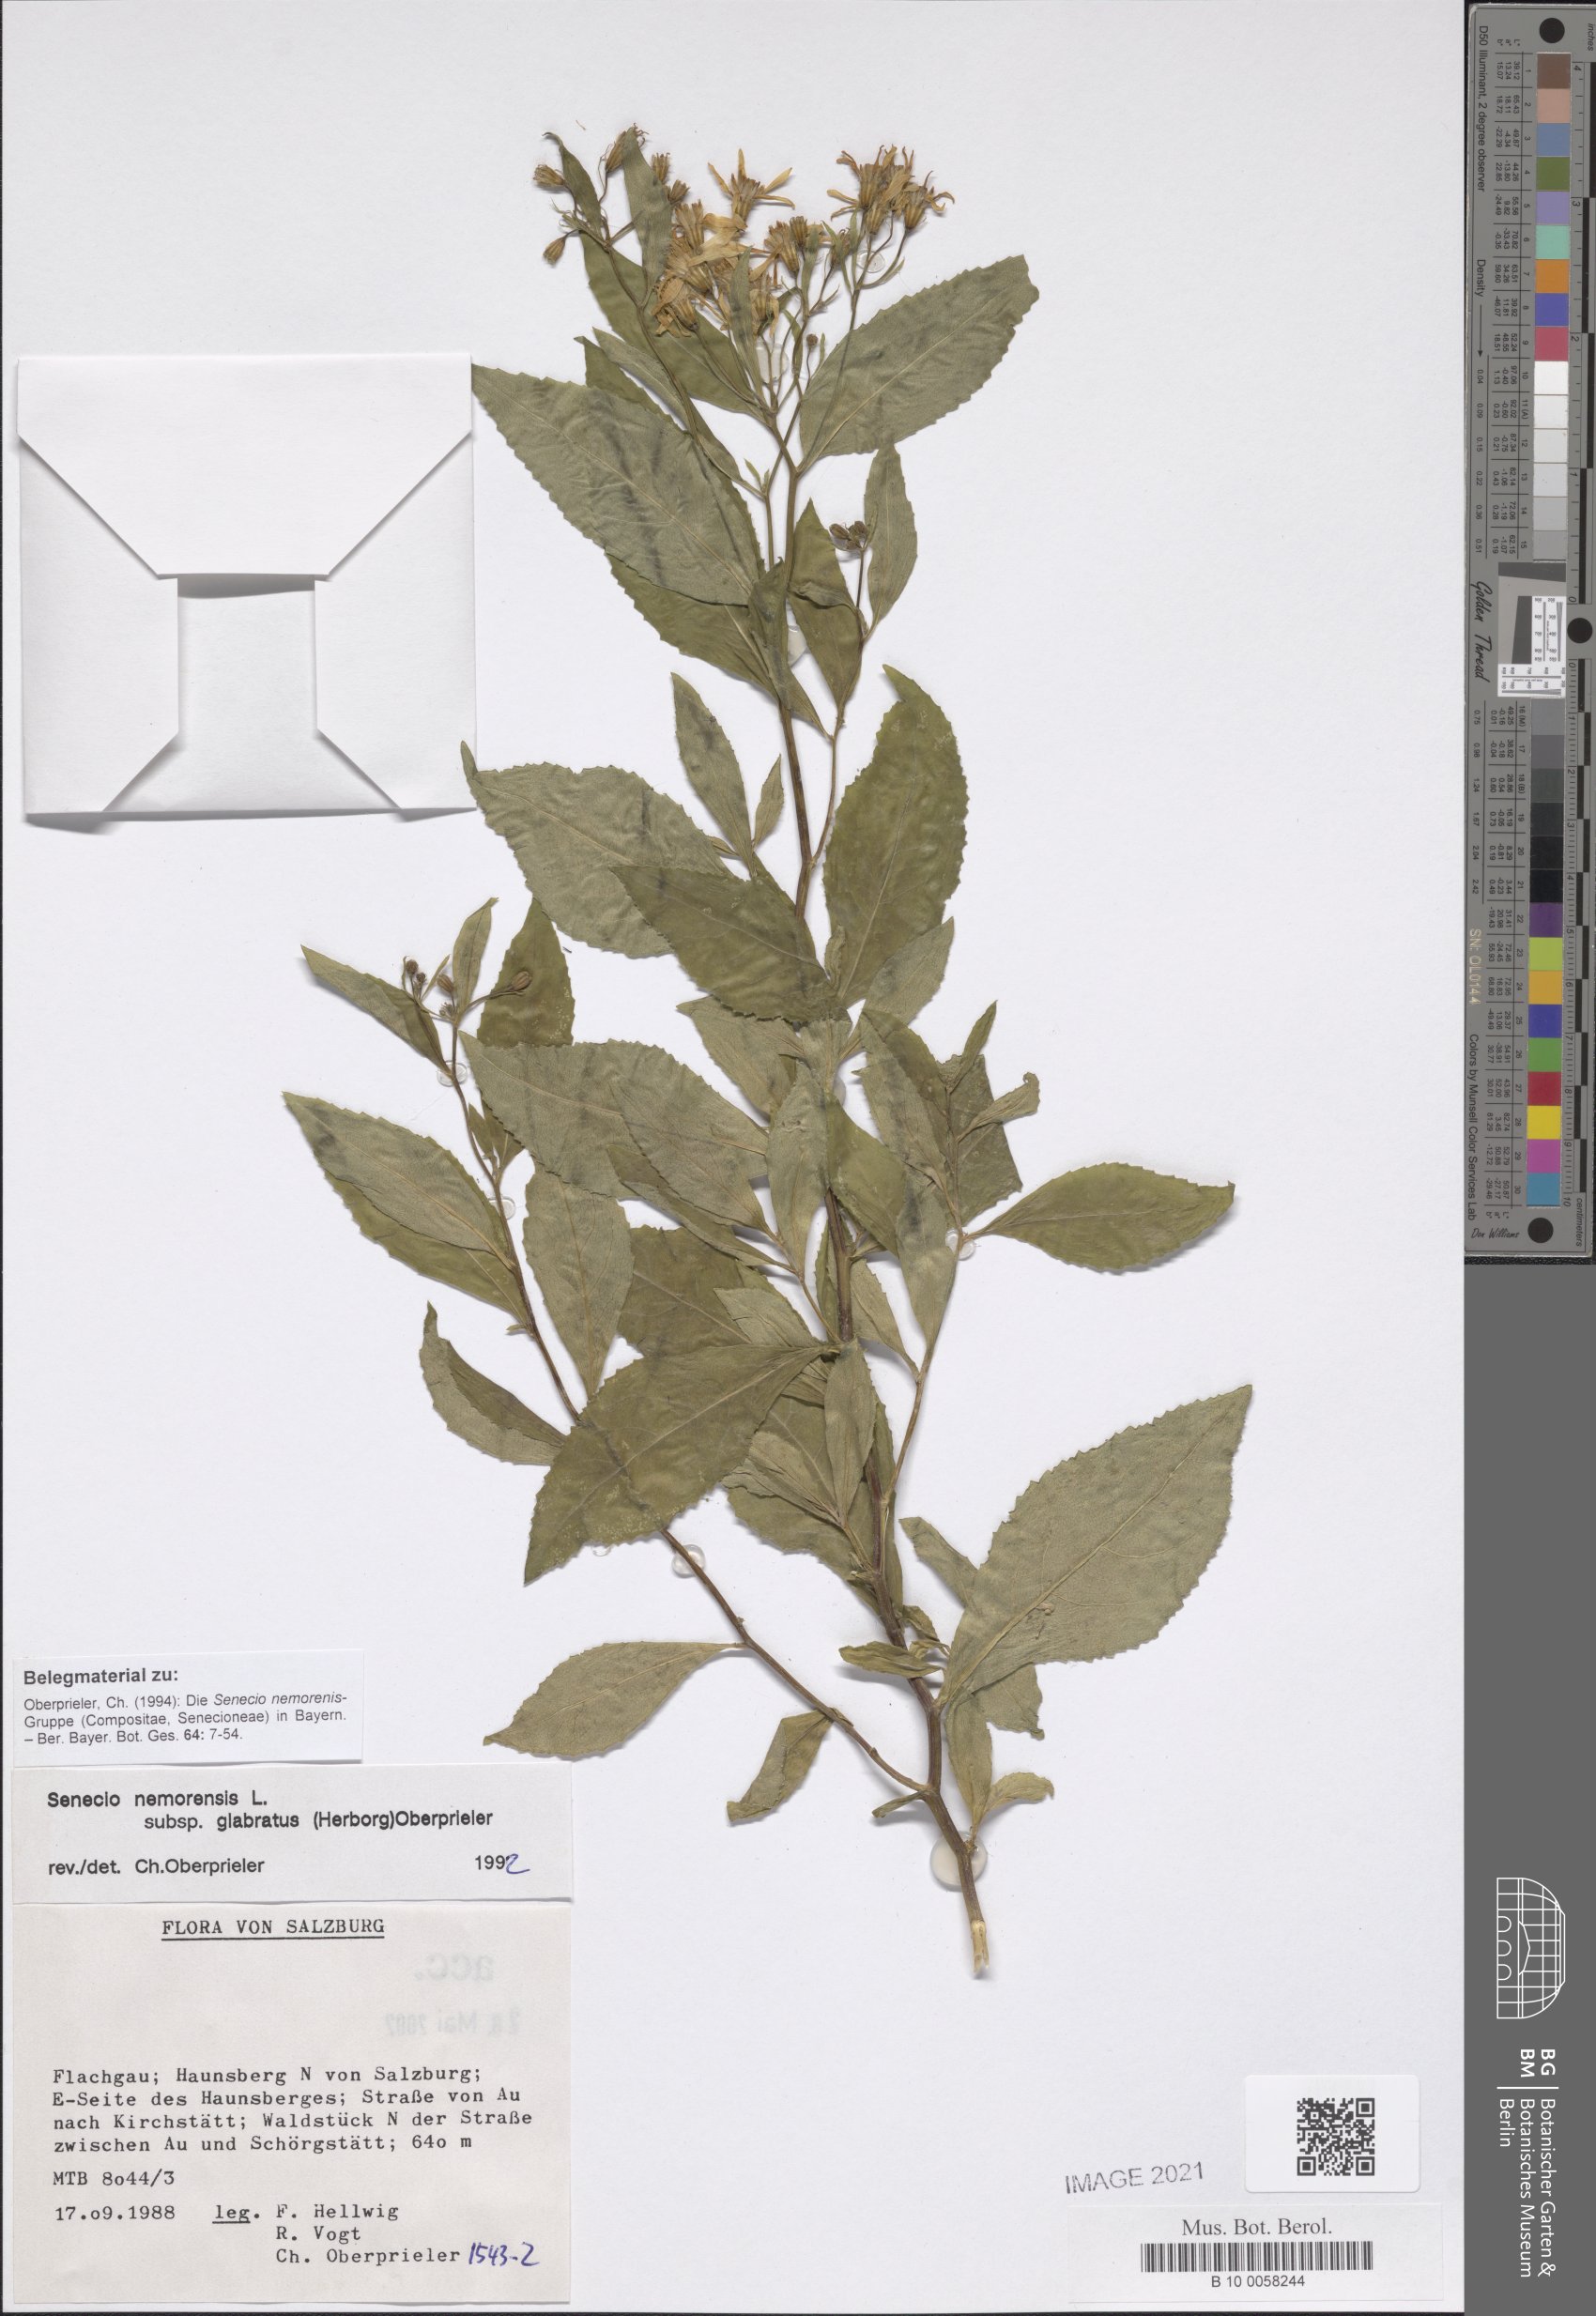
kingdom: Plantae
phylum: Tracheophyta
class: Magnoliopsida
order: Asterales
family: Asteraceae
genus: Senecio
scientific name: Senecio germanicus
